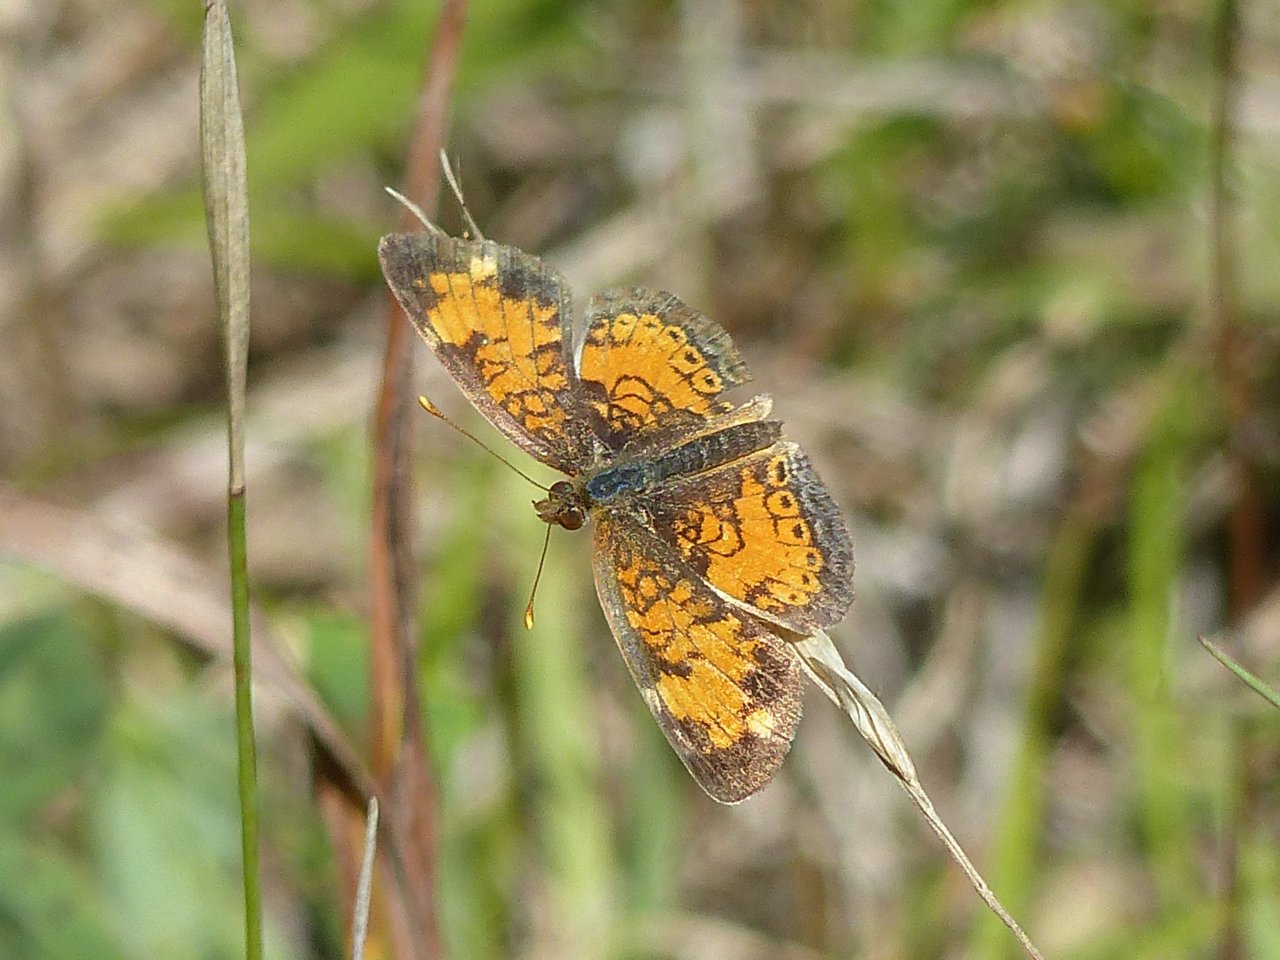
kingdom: Animalia
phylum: Arthropoda
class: Insecta
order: Lepidoptera
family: Nymphalidae
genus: Phyciodes
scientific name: Phyciodes tharos
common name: Northern Crescent
